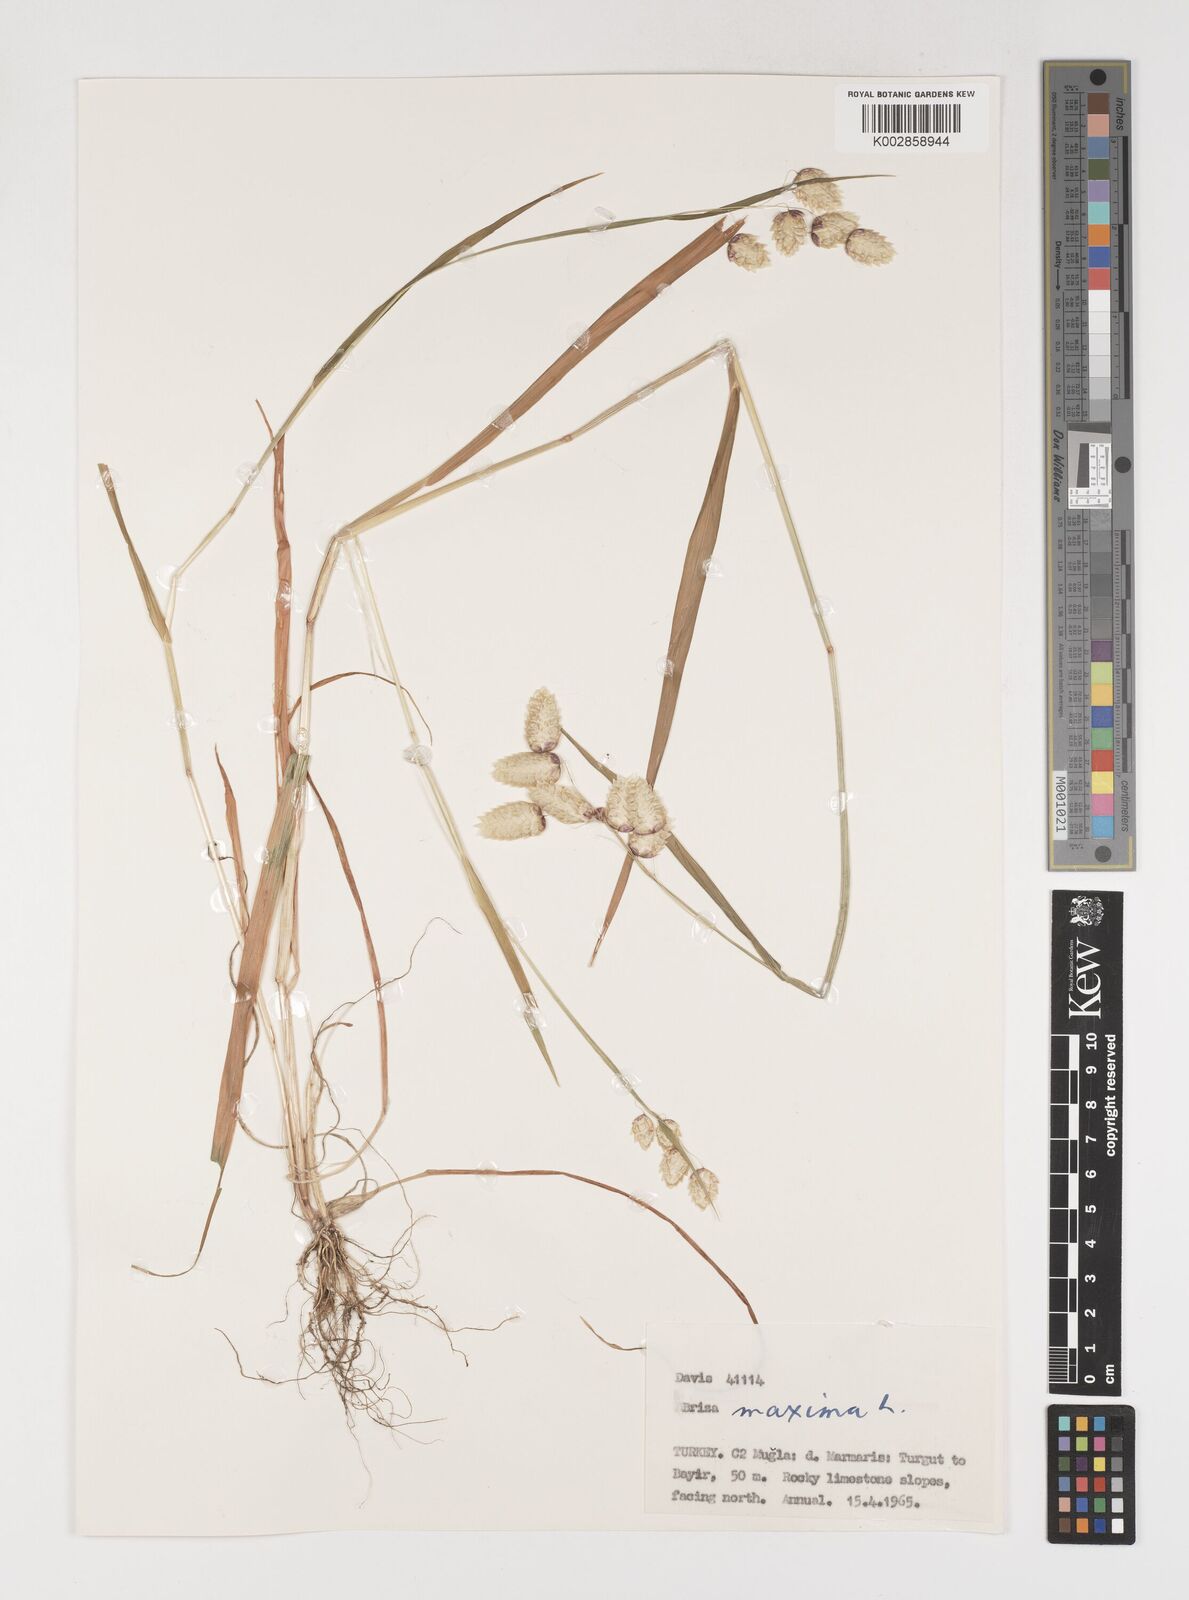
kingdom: Plantae
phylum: Tracheophyta
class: Liliopsida
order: Poales
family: Poaceae
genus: Briza
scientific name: Briza maxima
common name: Big quakinggrass
